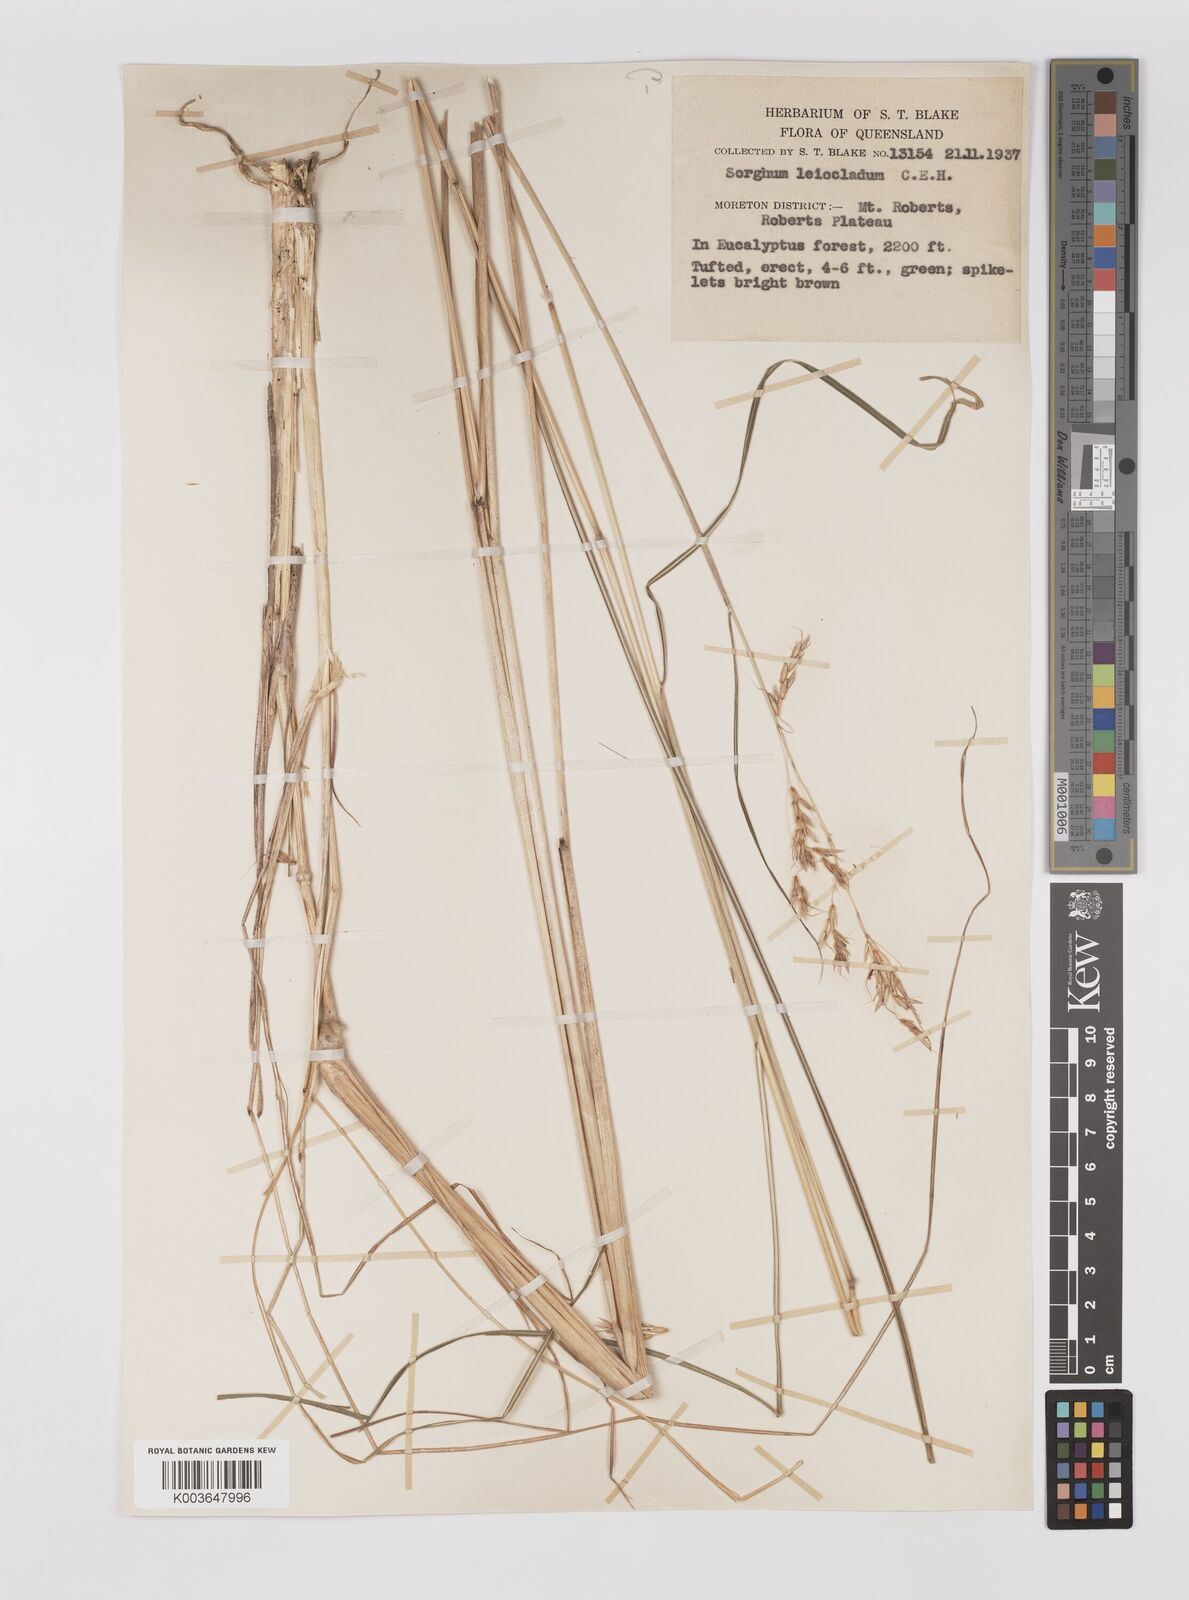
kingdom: Plantae
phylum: Tracheophyta
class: Liliopsida
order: Poales
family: Poaceae
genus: Sarga
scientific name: Sarga leioclada
